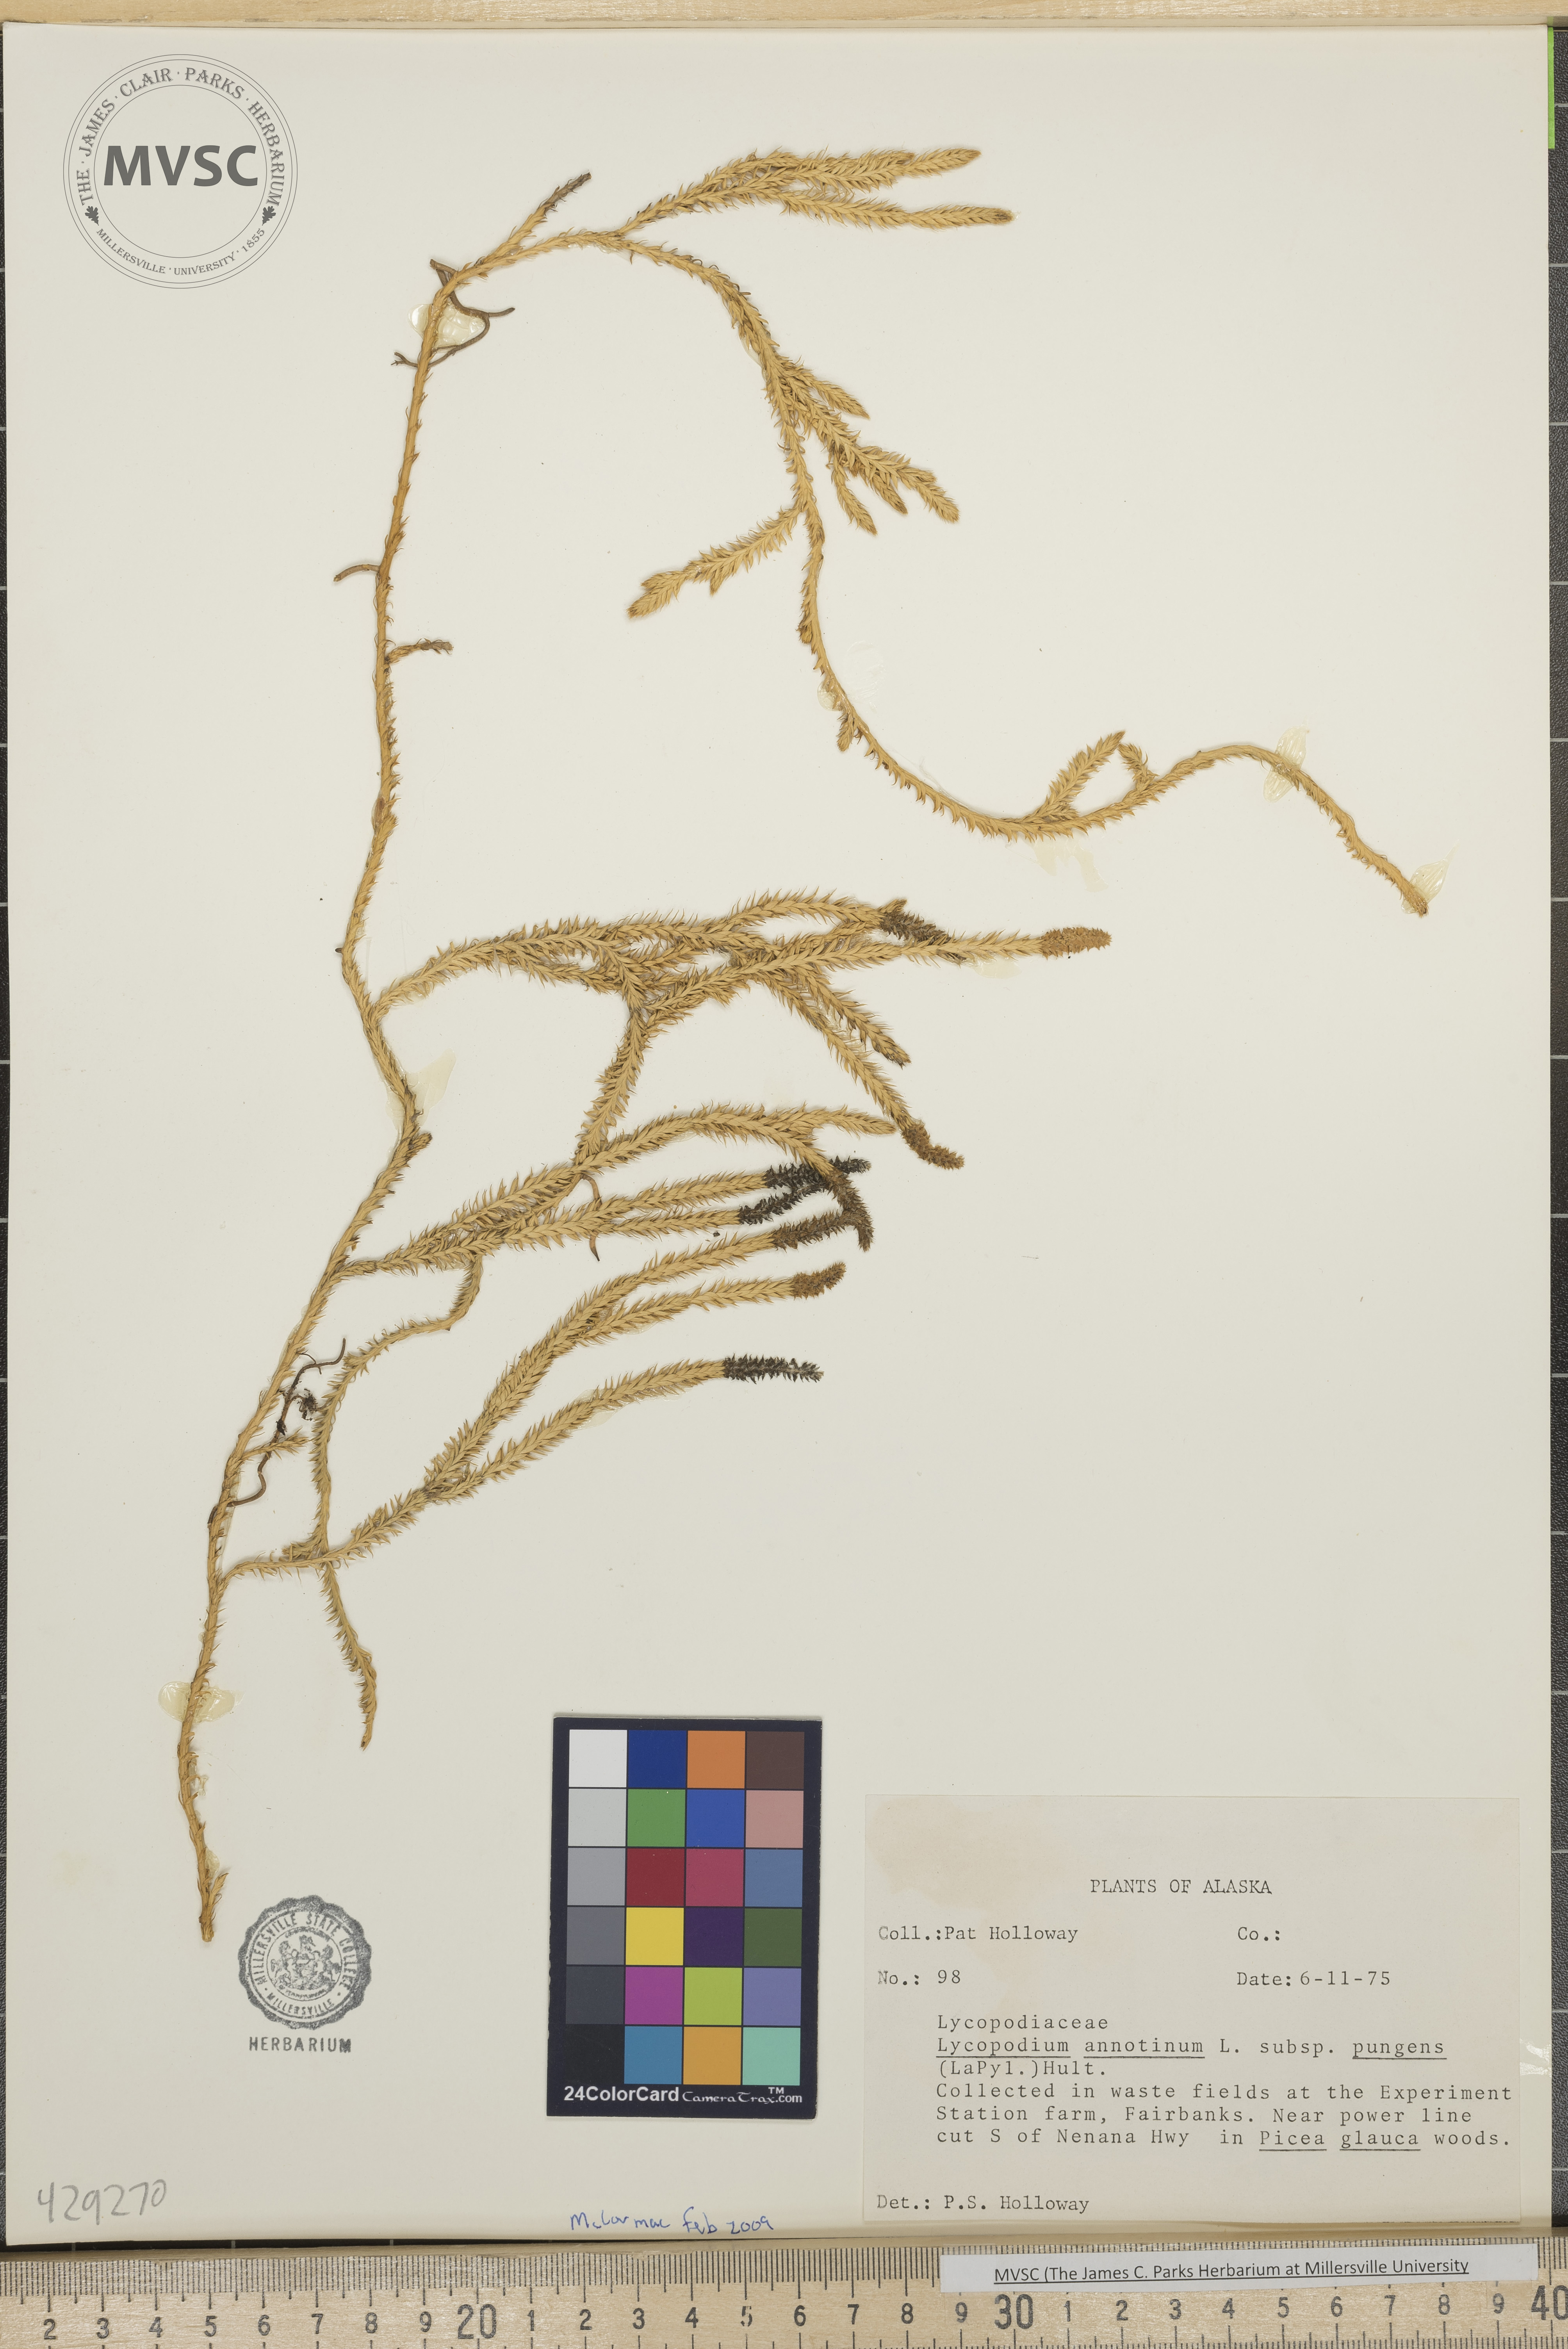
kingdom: Plantae
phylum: Tracheophyta
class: Lycopodiopsida
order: Lycopodiales
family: Lycopodiaceae
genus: Spinulum
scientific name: Spinulum annotinum
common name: Interrupted club-moss
